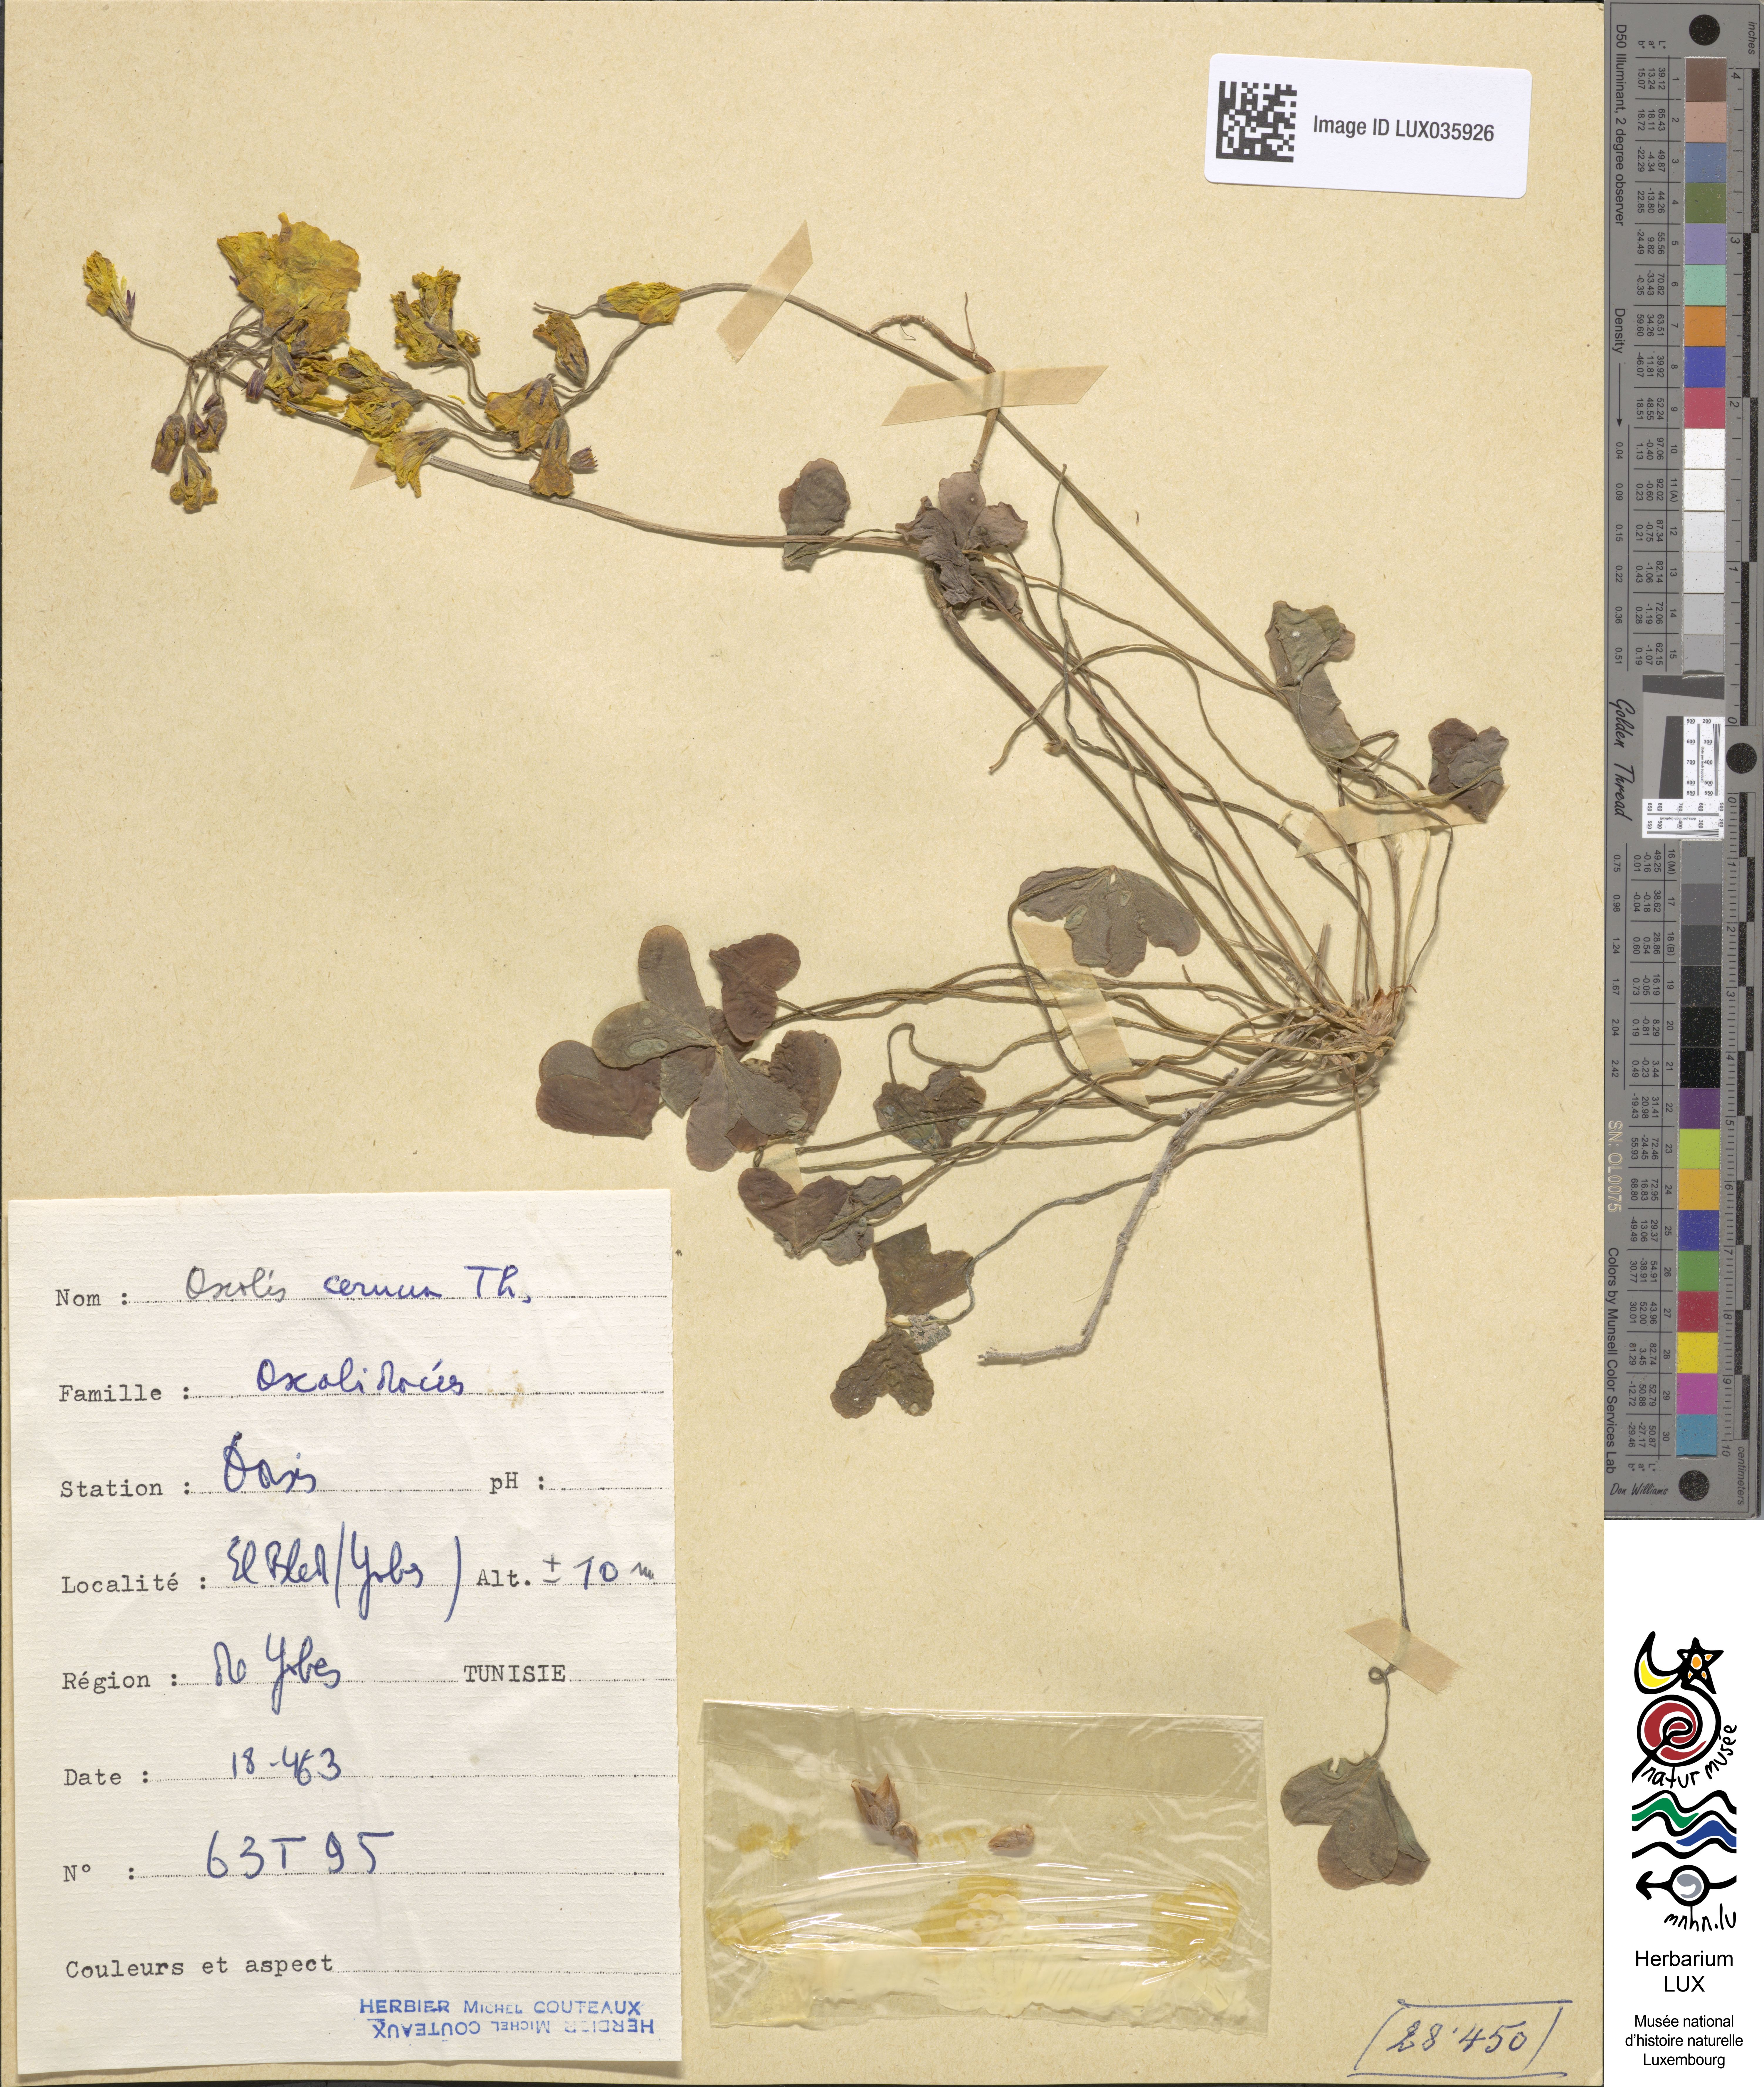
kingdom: Plantae
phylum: Tracheophyta
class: Magnoliopsida
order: Oxalidales
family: Oxalidaceae
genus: Oxalis
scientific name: Oxalis pes-caprae
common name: Bermuda-buttercup
